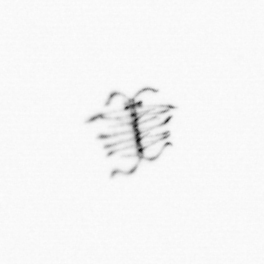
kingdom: Chromista
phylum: Ochrophyta
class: Bacillariophyceae
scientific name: Bacillariophyceae
